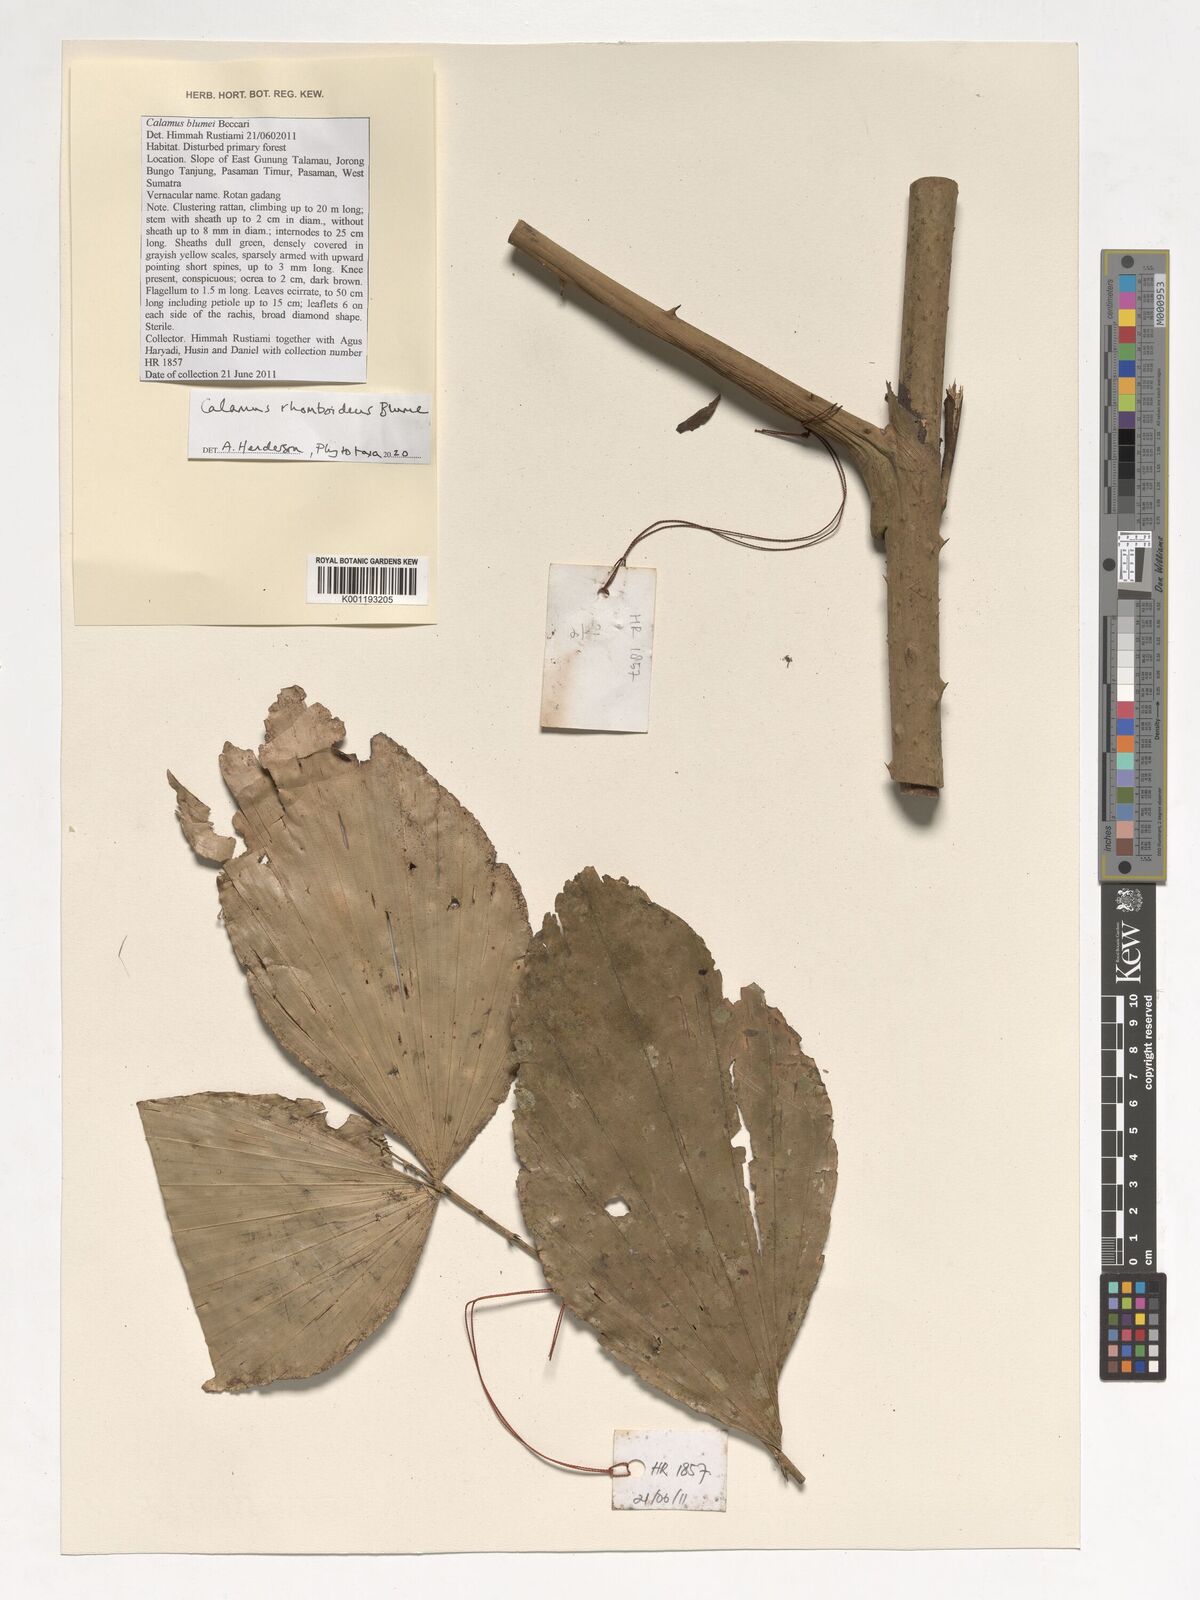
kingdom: Plantae
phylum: Tracheophyta
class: Liliopsida
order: Arecales
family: Arecaceae
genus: Calamus
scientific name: Calamus rhomboideus
